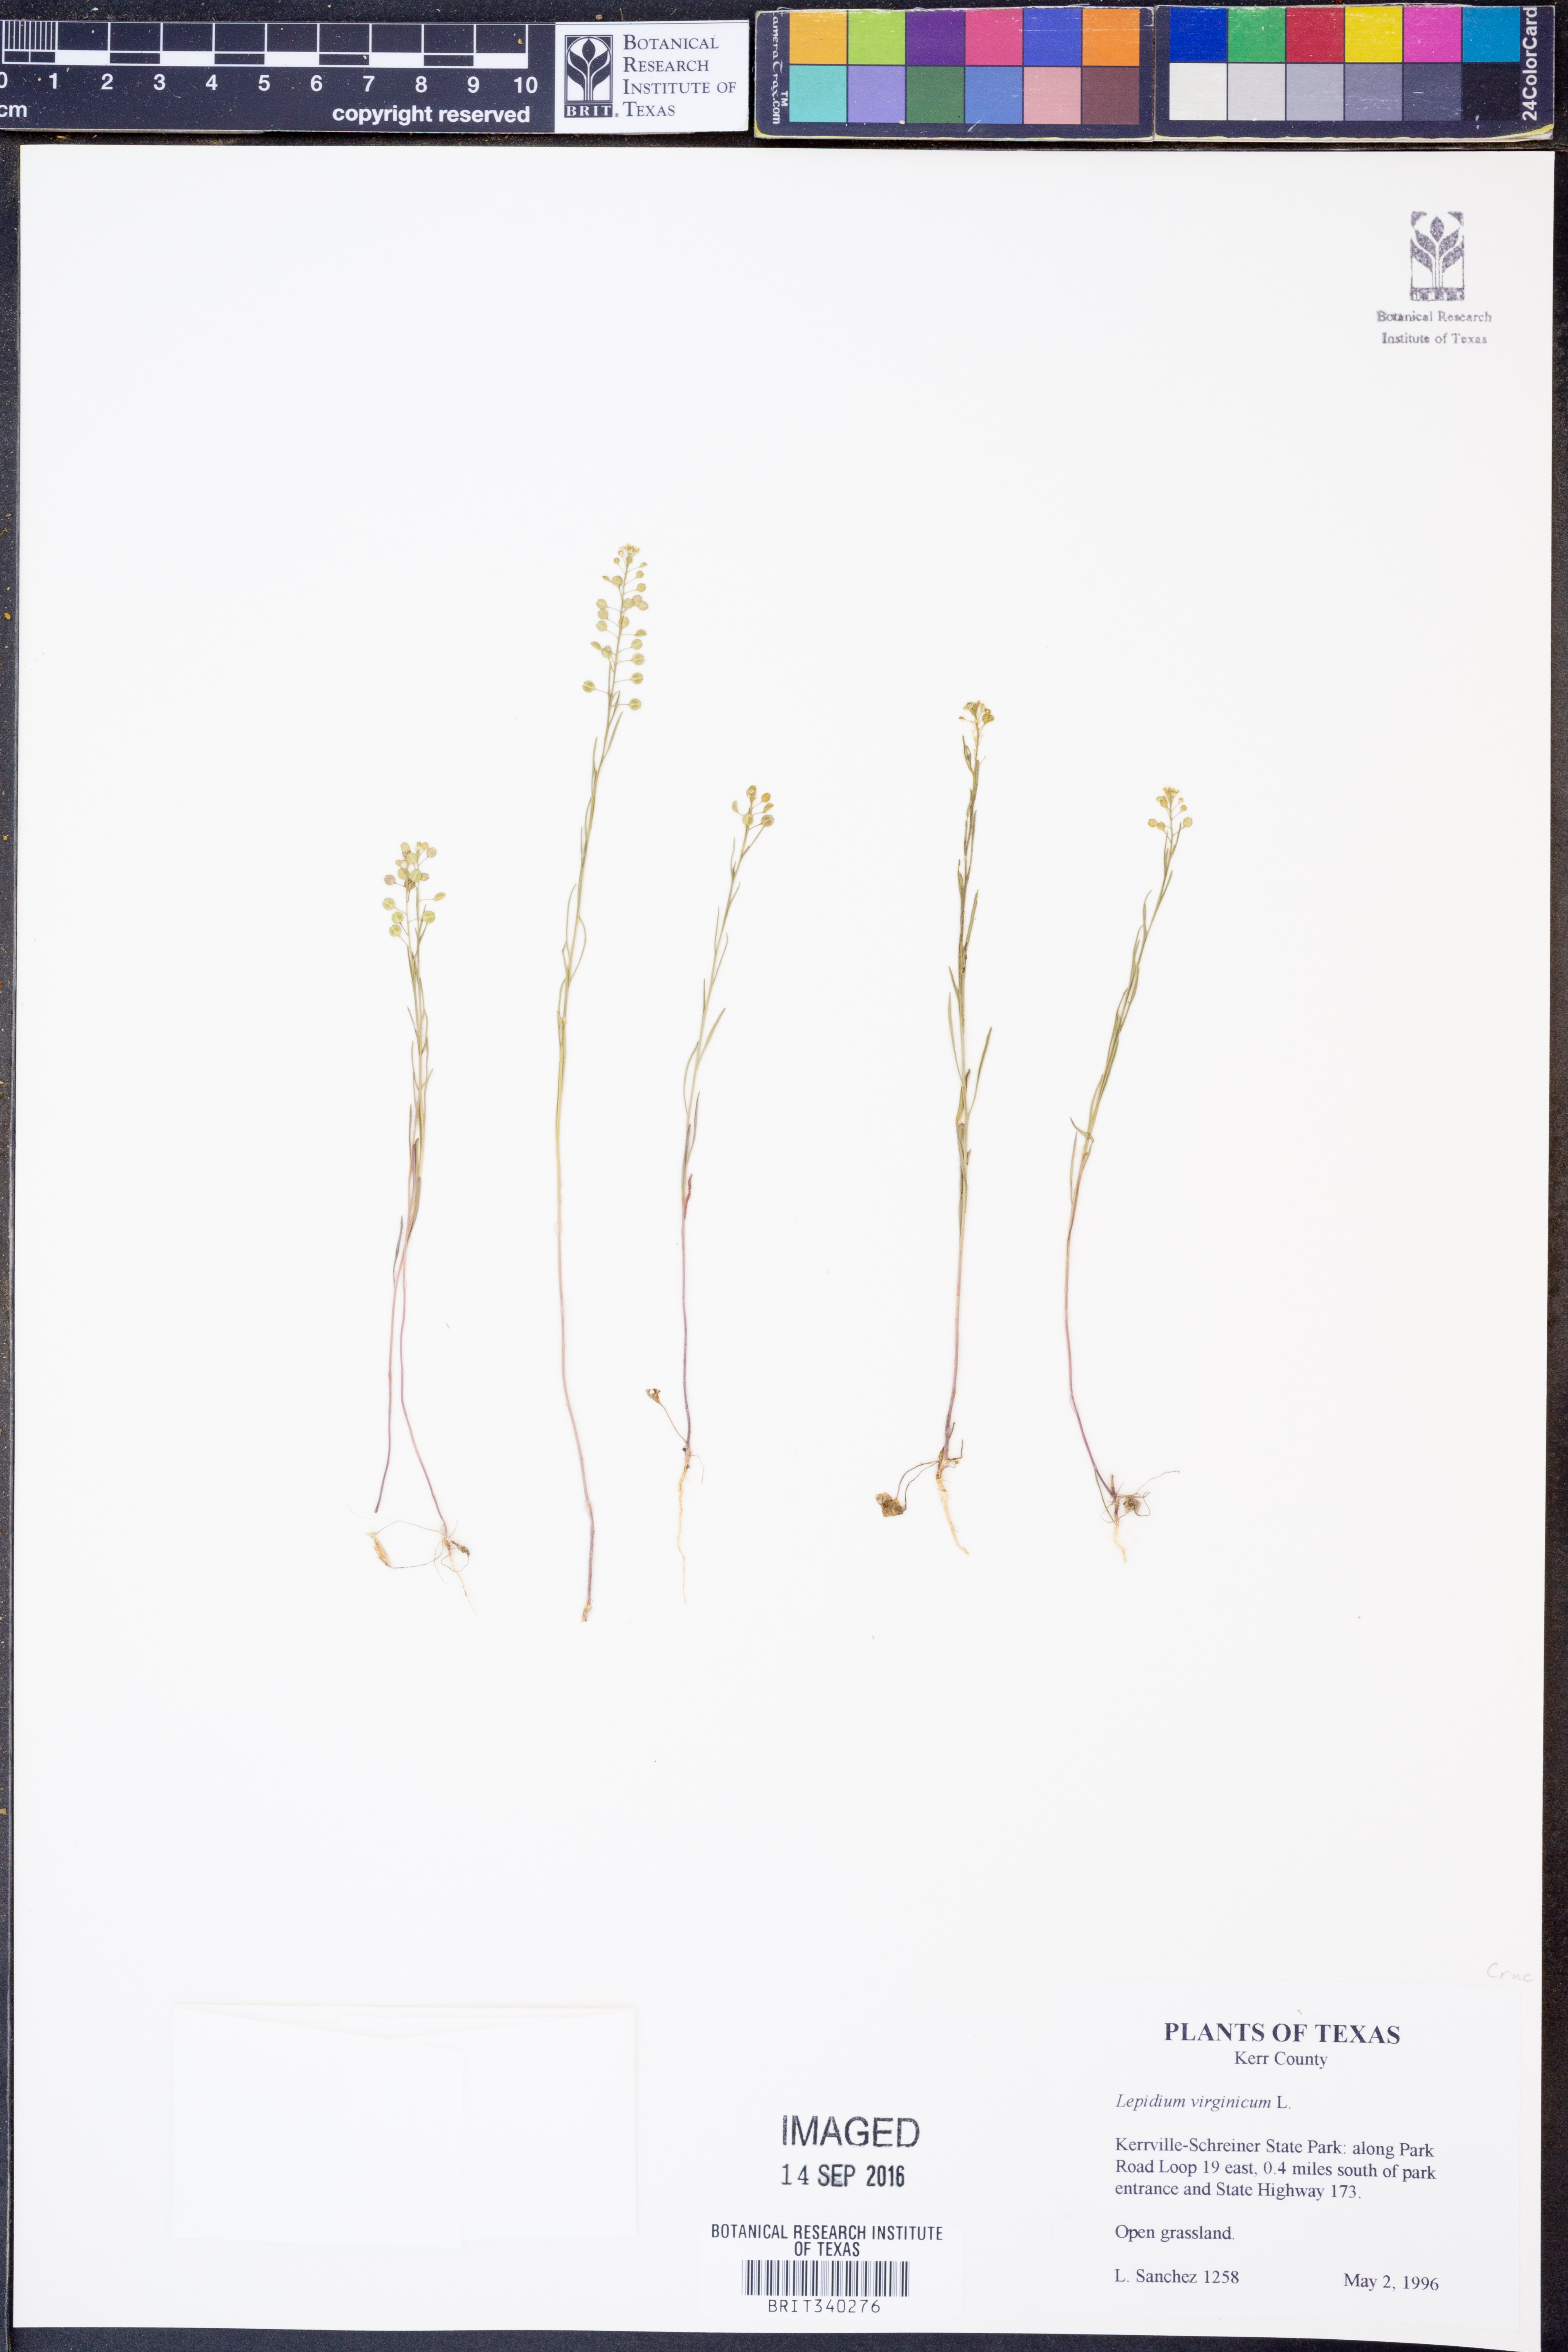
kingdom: Plantae
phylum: Tracheophyta
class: Magnoliopsida
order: Brassicales
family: Brassicaceae
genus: Lepidium
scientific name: Lepidium virginicum
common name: Least pepperwort
